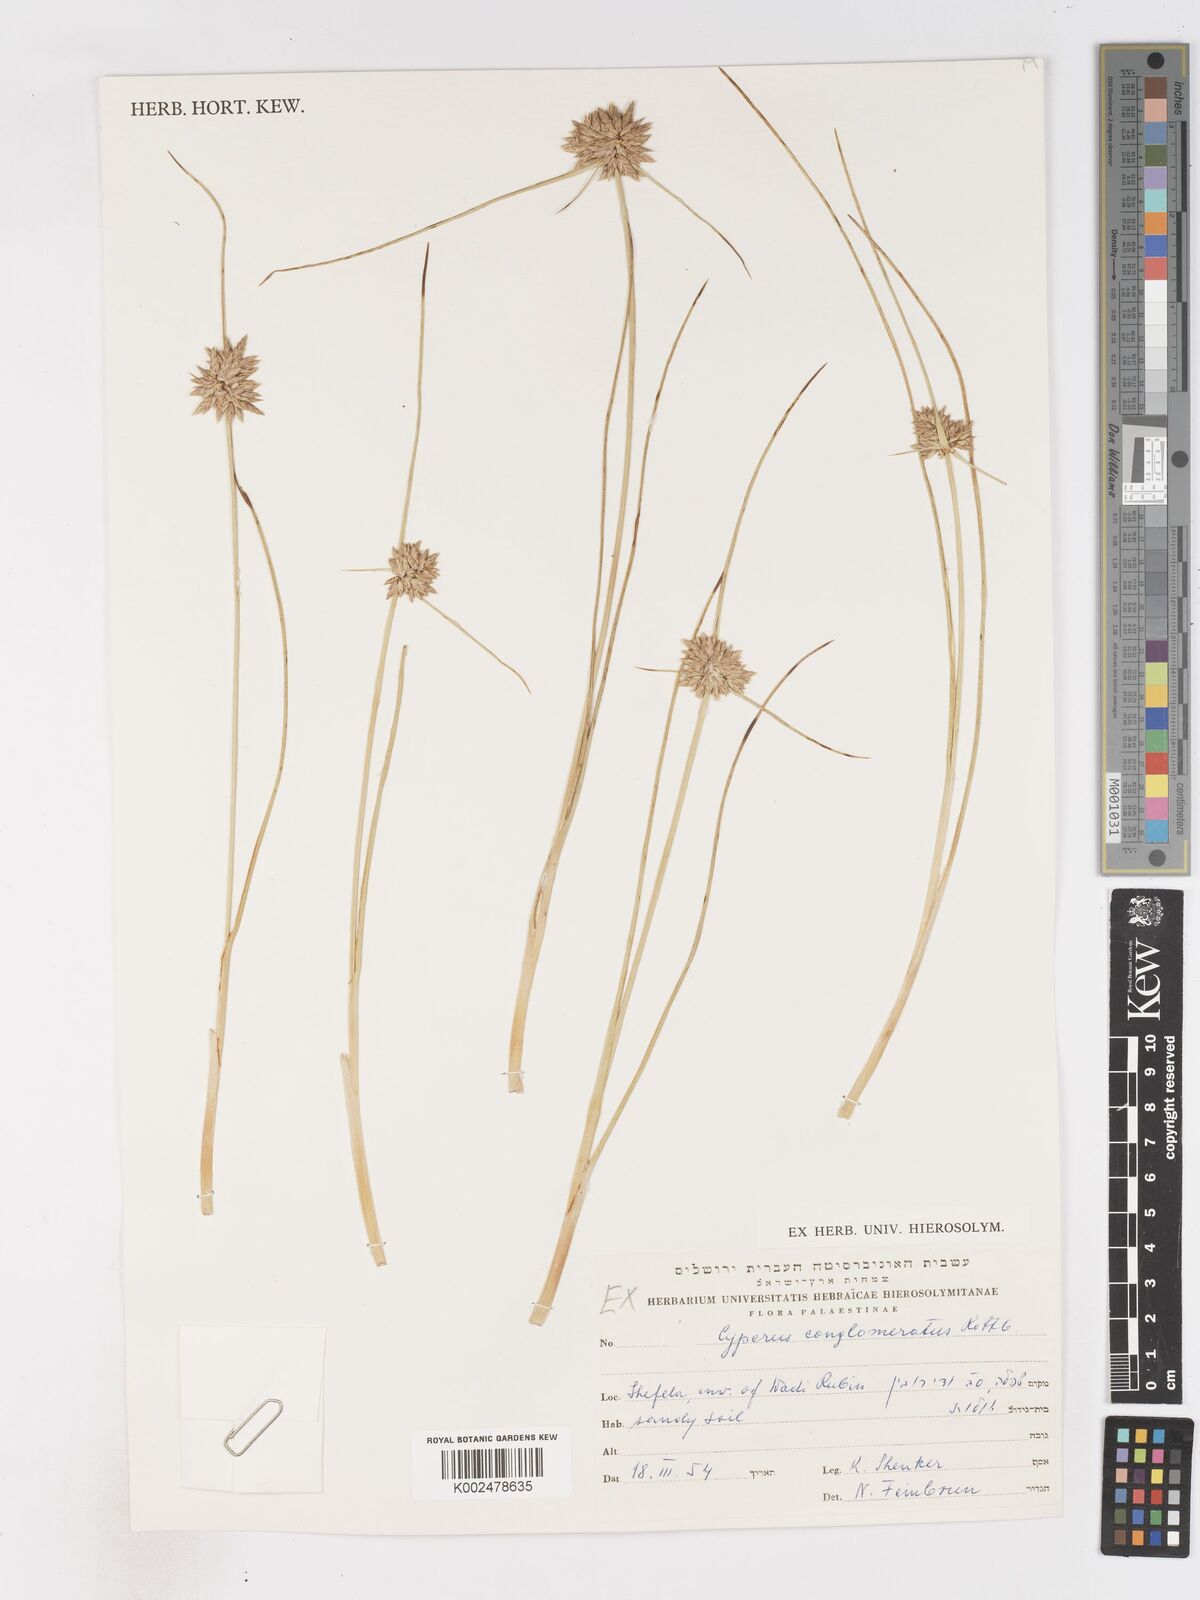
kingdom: Plantae
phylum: Tracheophyta
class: Liliopsida
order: Poales
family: Cyperaceae
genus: Cyperus
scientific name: Cyperus conglomeratus
